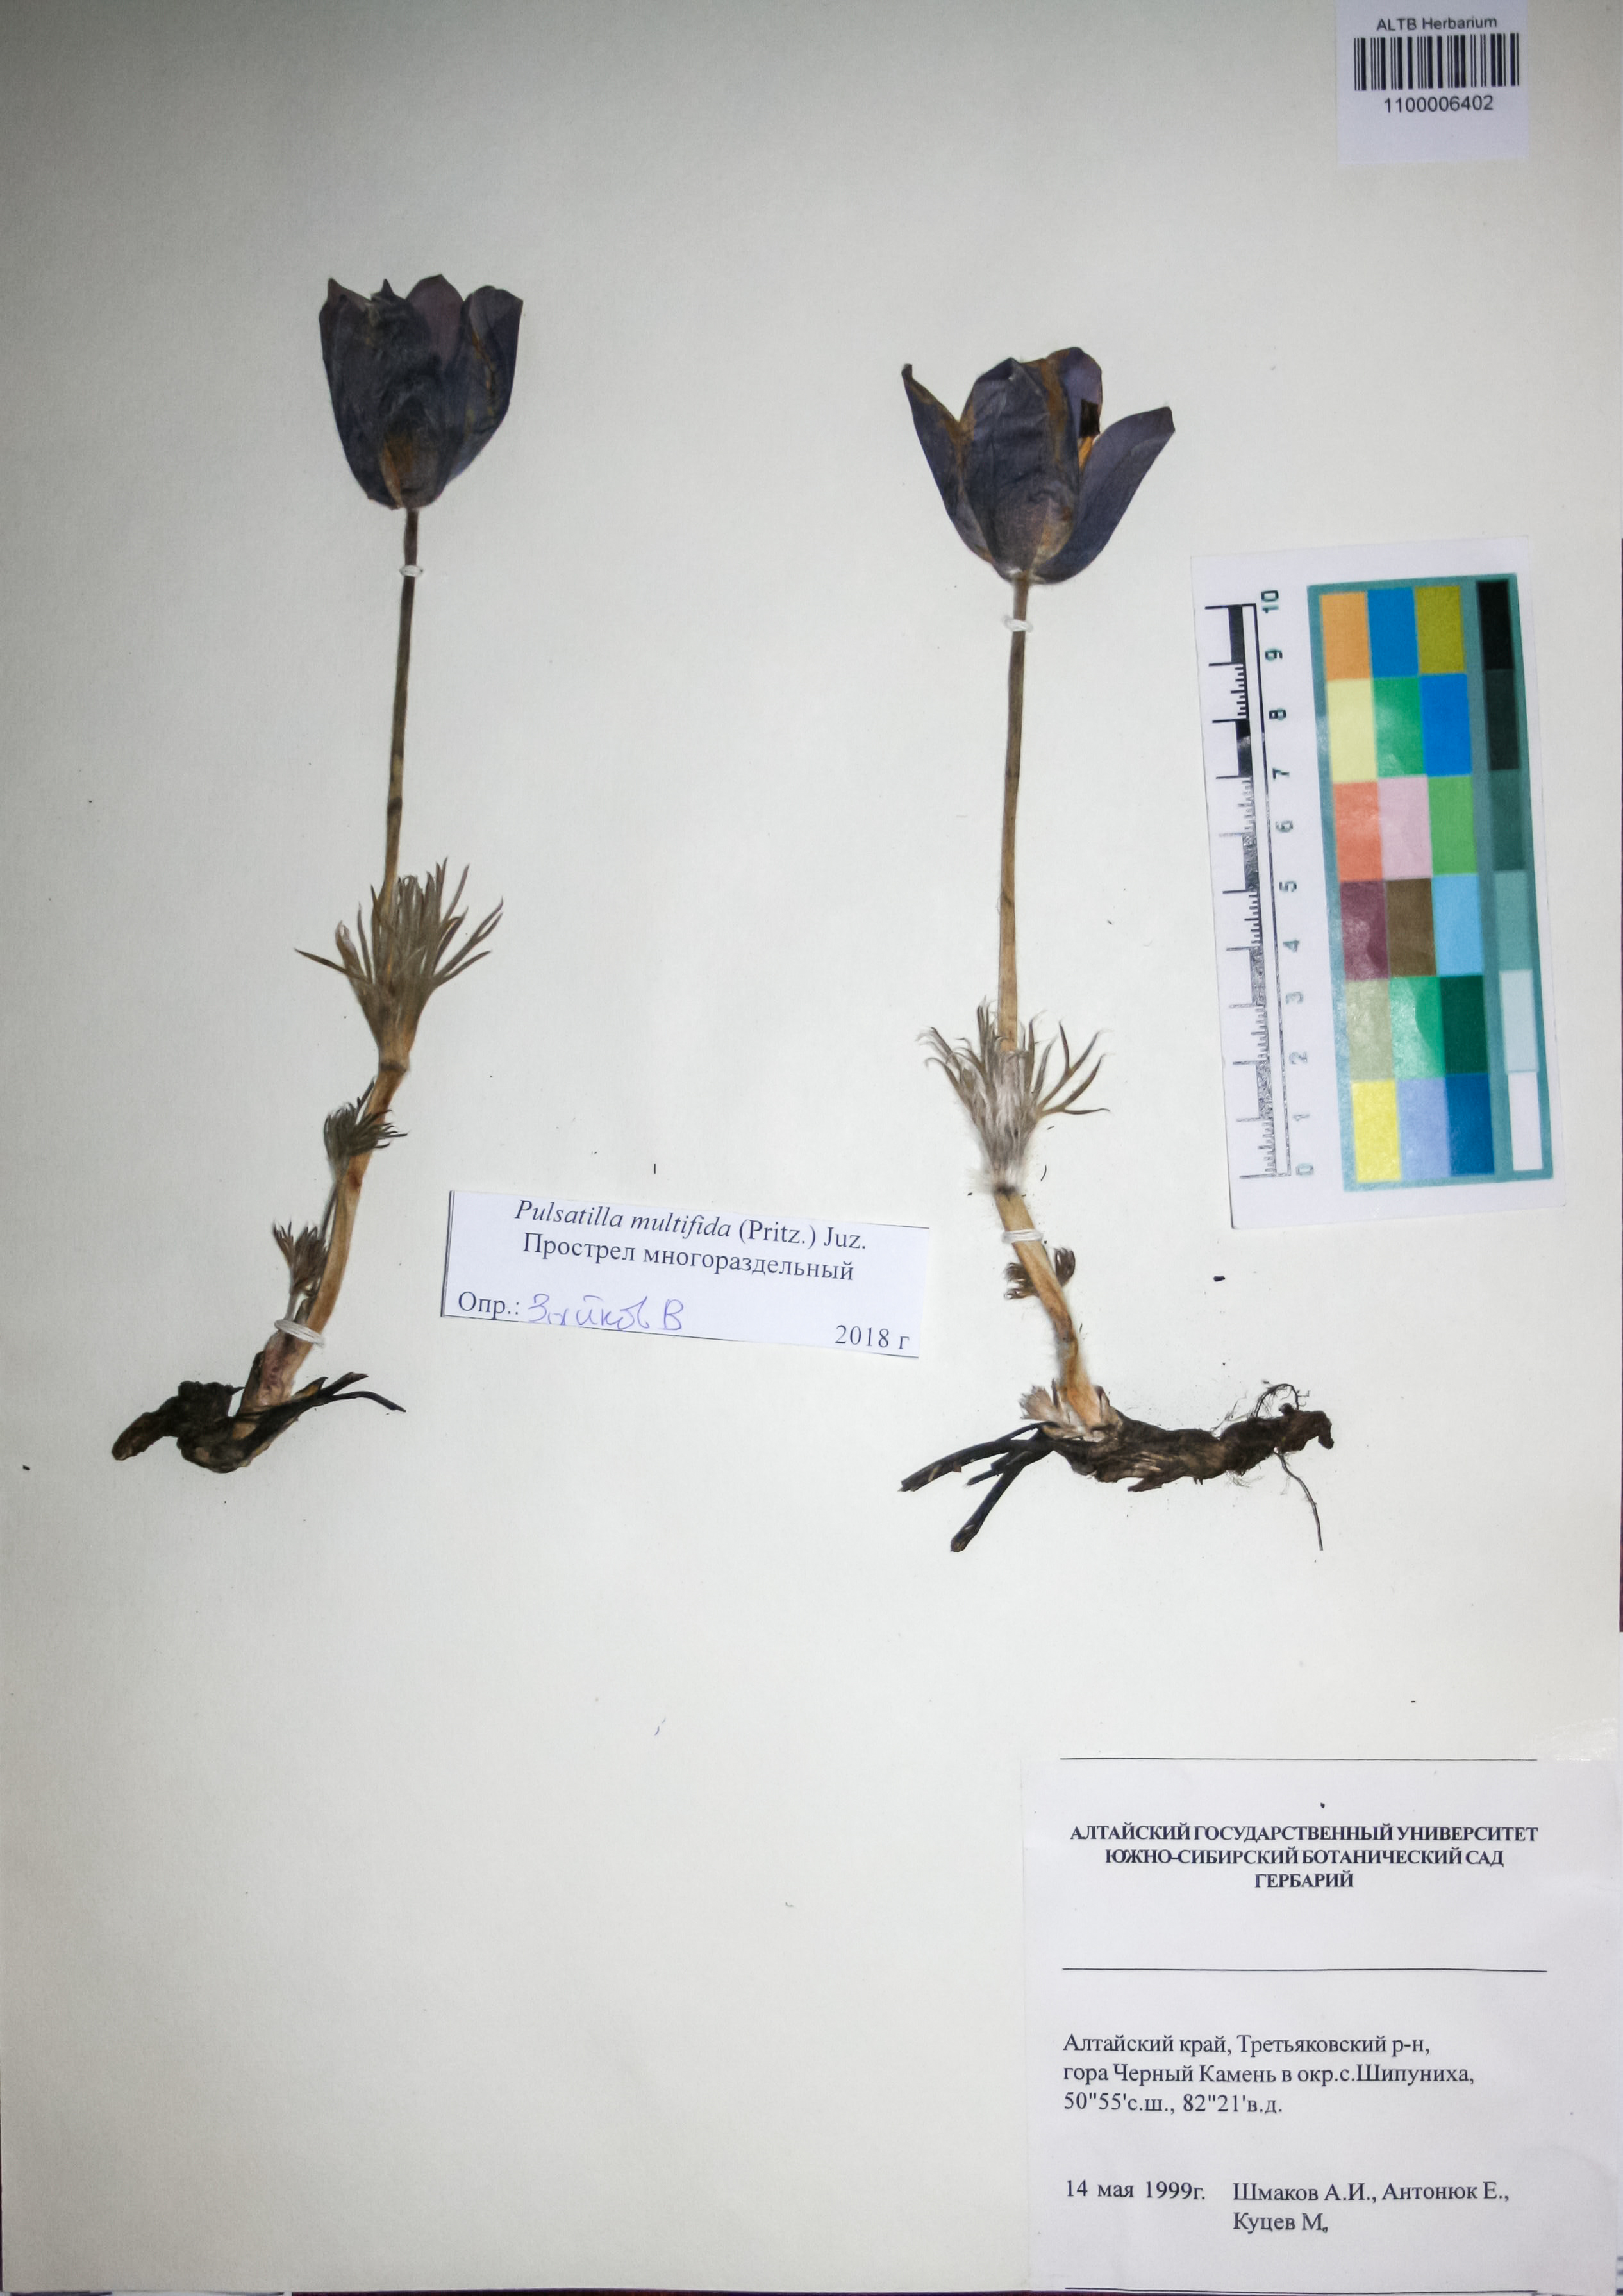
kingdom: Plantae
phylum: Tracheophyta
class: Magnoliopsida
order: Ranunculales
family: Ranunculaceae
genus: Pulsatilla
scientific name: Pulsatilla patens
